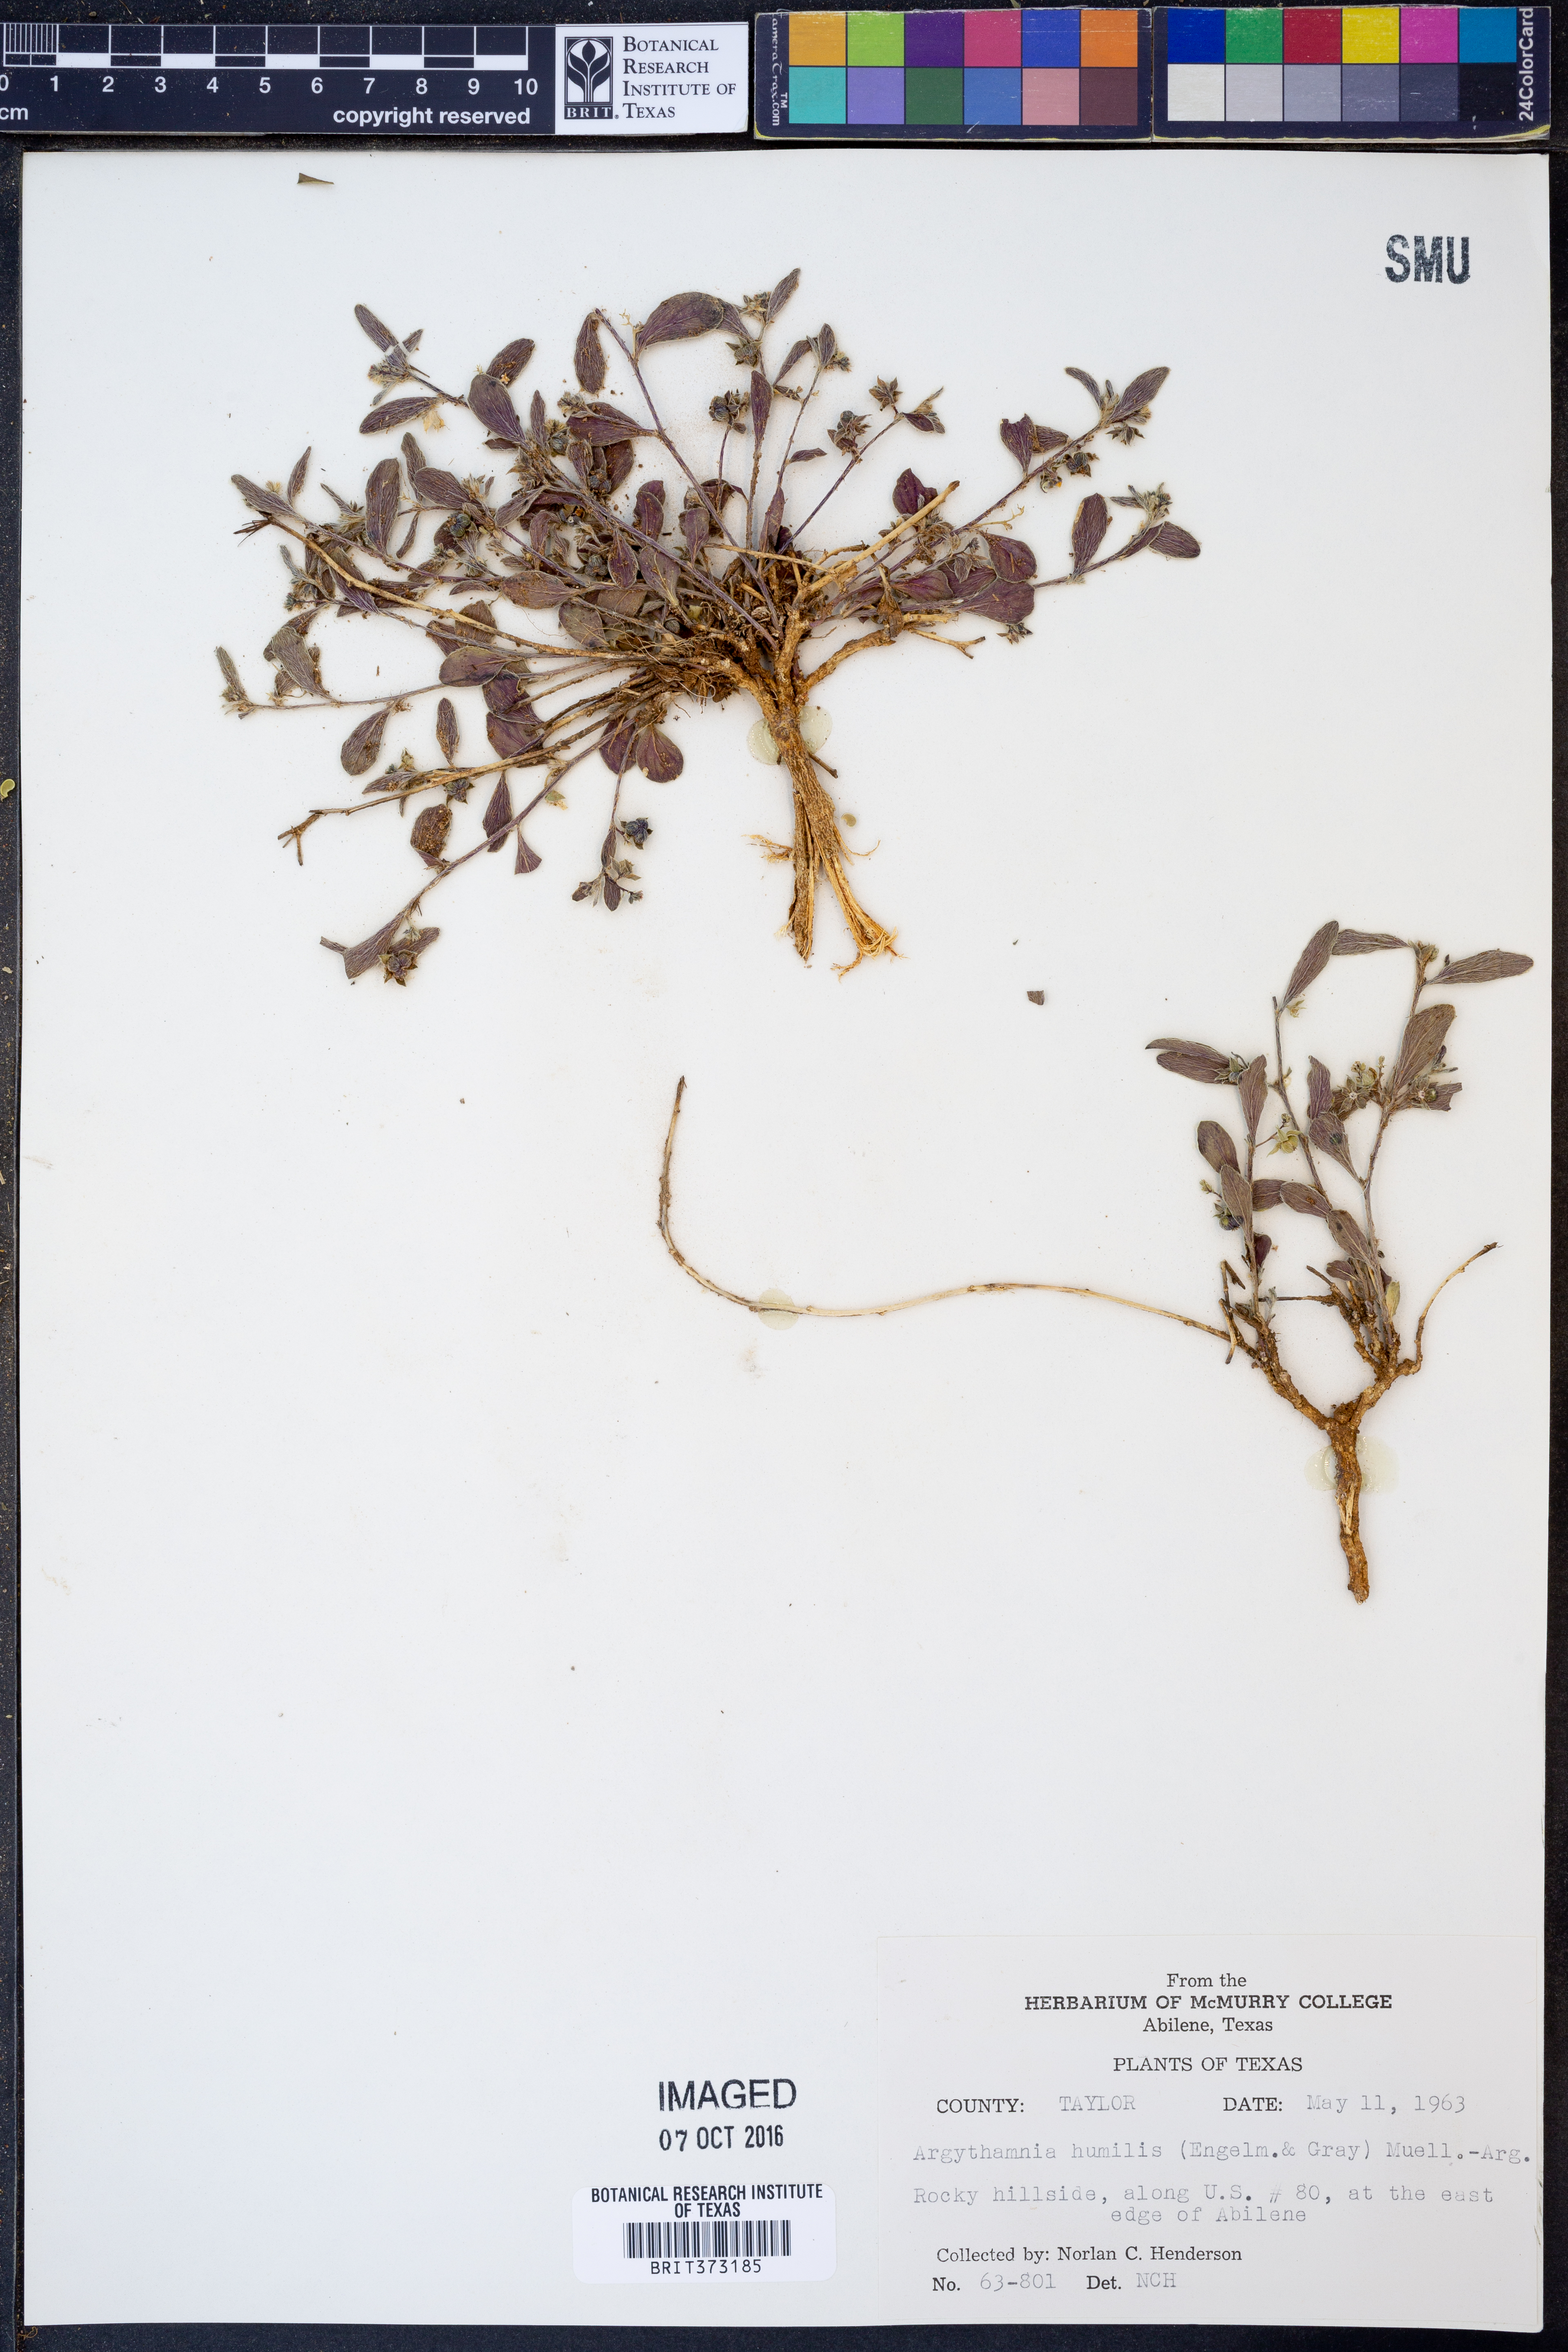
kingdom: Plantae
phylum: Tracheophyta
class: Magnoliopsida
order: Malpighiales
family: Euphorbiaceae
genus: Ditaxis
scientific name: Ditaxis humilis
